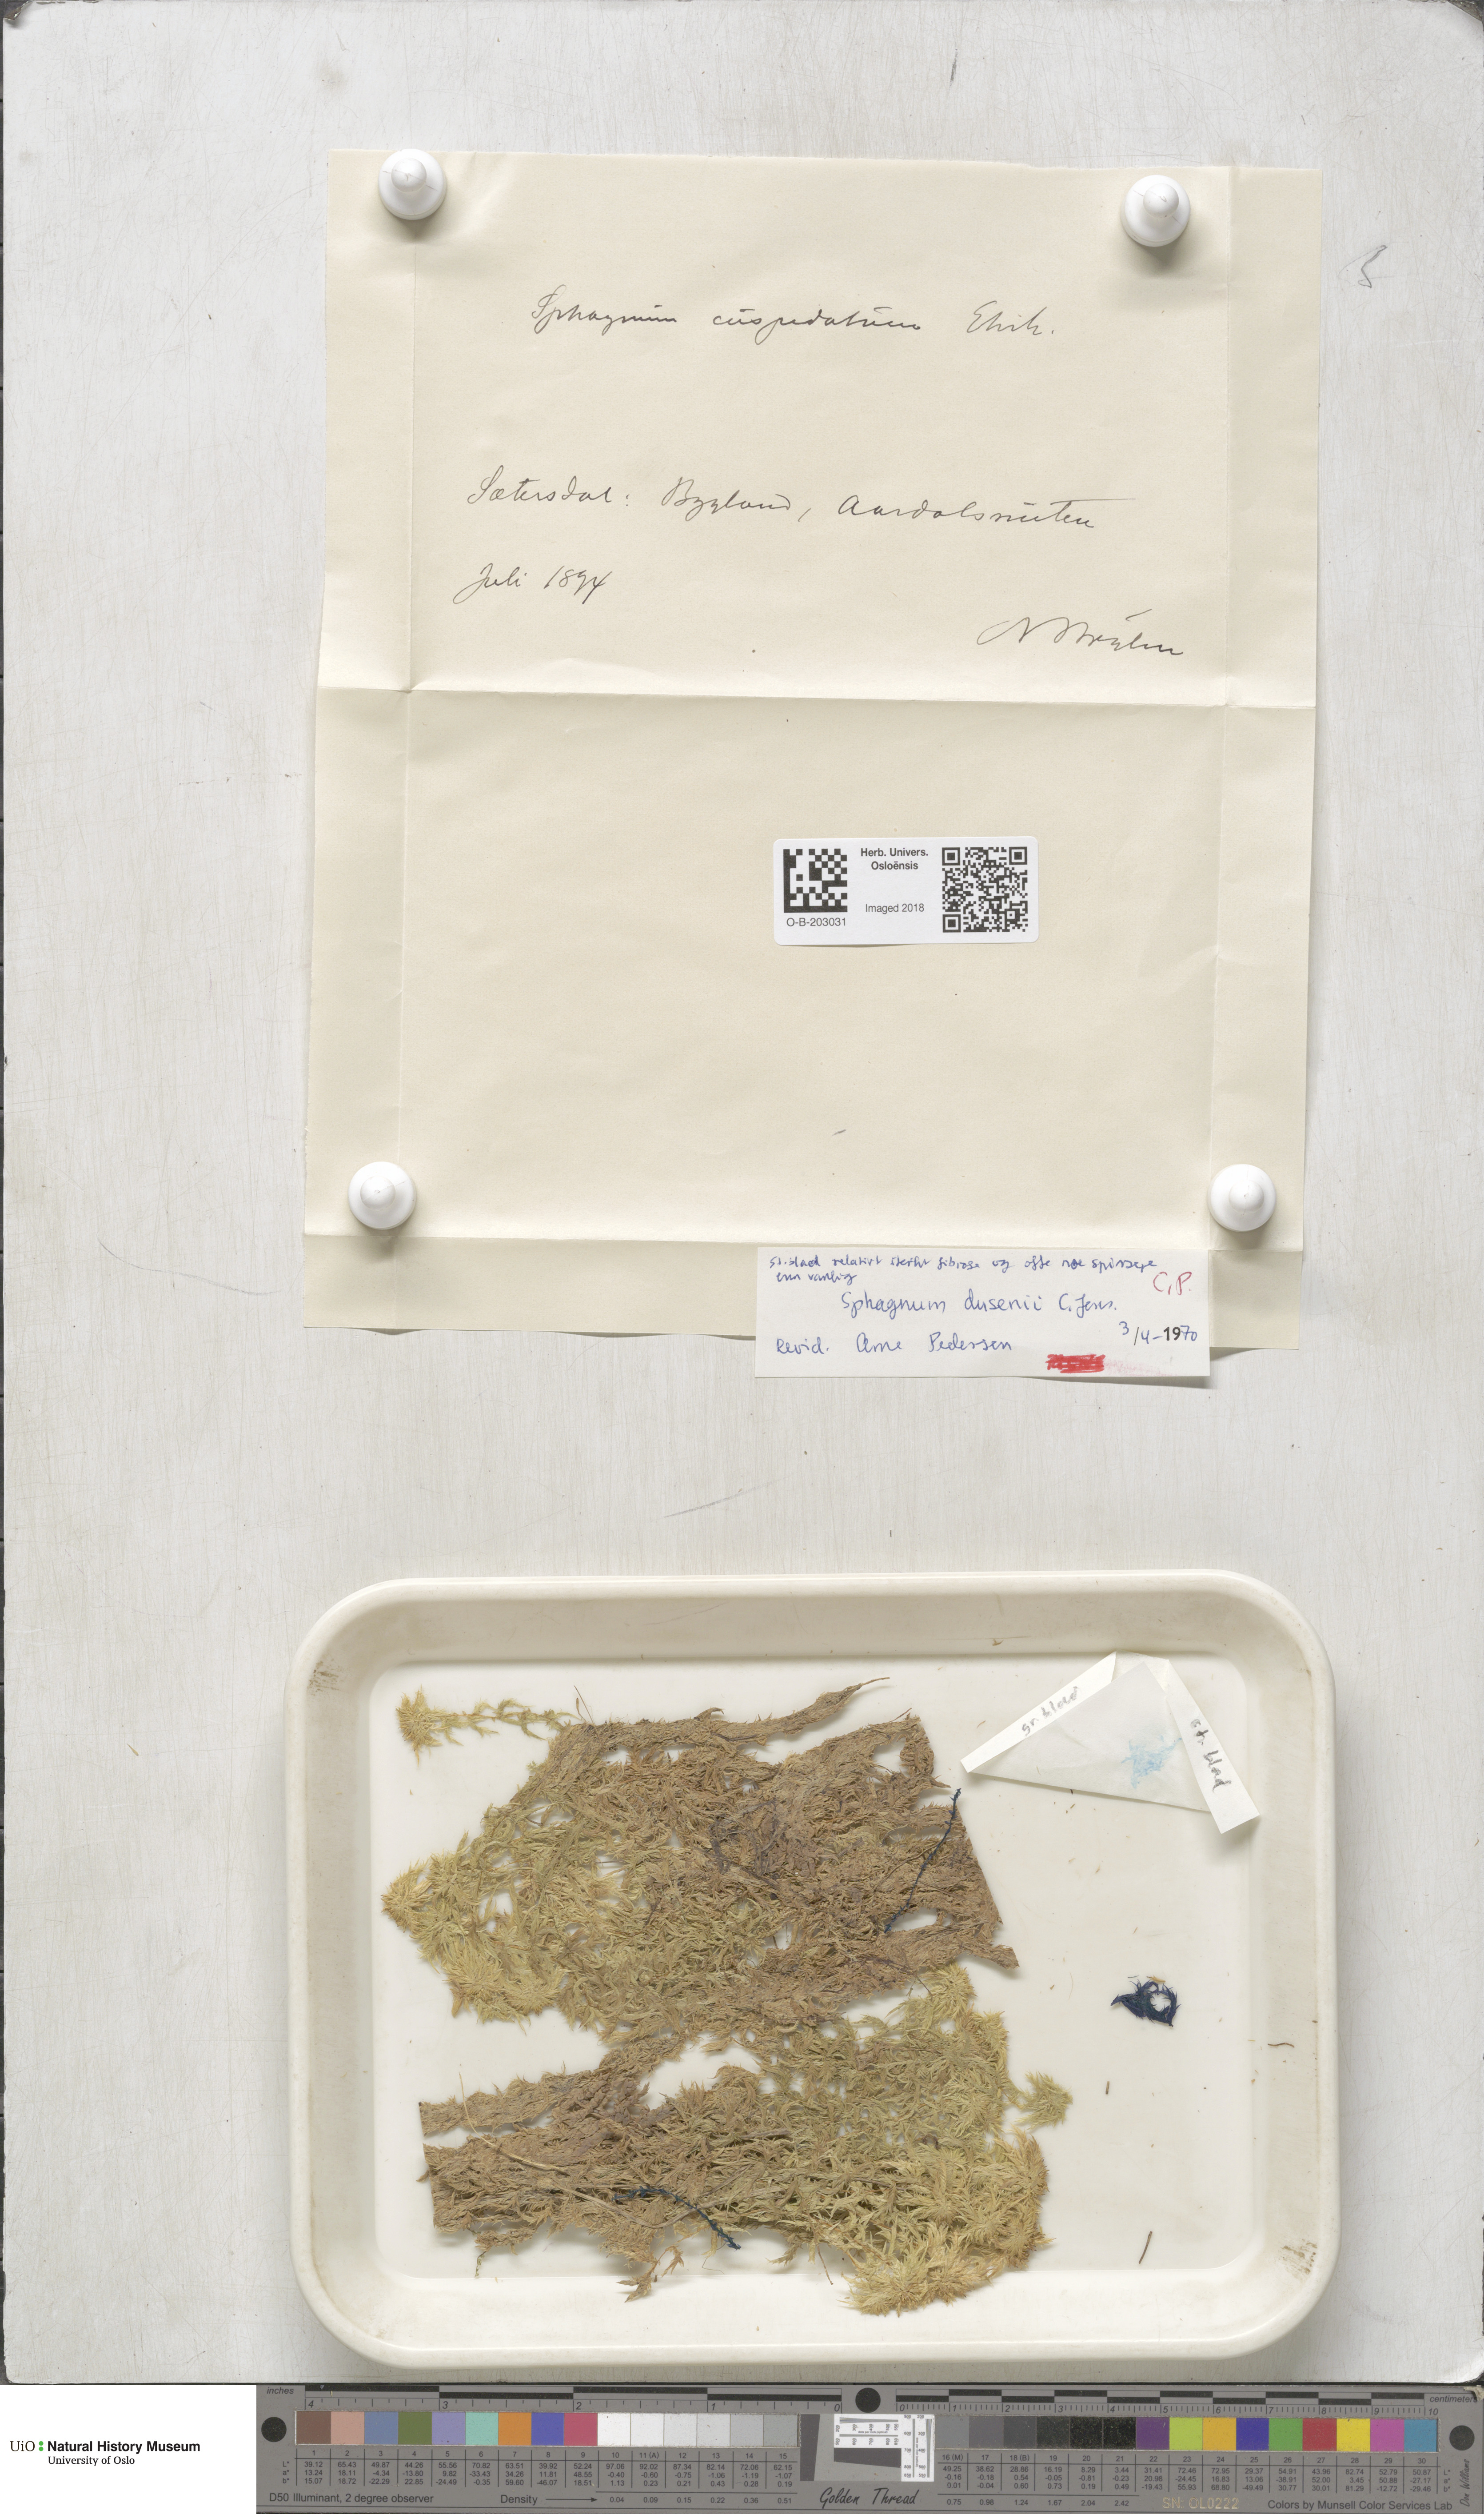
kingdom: Plantae
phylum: Bryophyta
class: Sphagnopsida
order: Sphagnales
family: Sphagnaceae
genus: Sphagnum
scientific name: Sphagnum majus
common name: Olive bog-moss
